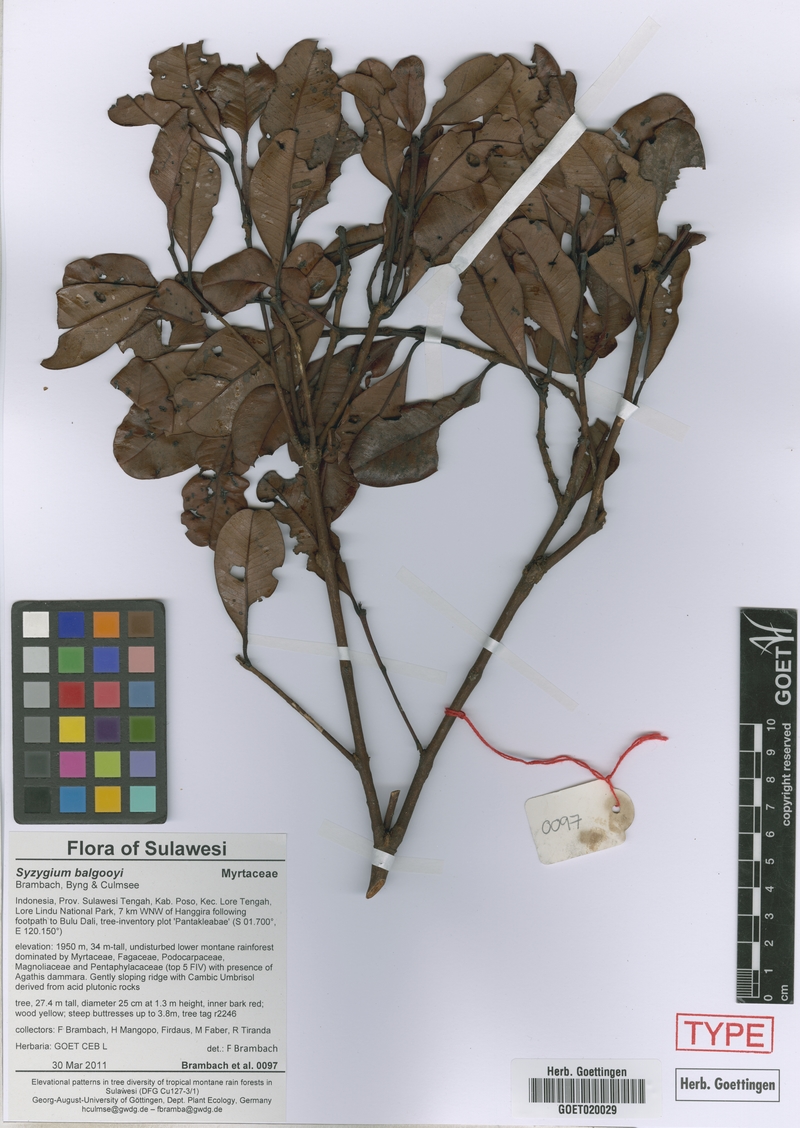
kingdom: Plantae
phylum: Tracheophyta
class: Magnoliopsida
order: Myrtales
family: Myrtaceae
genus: Syzygium
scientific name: Syzygium balgooyi
